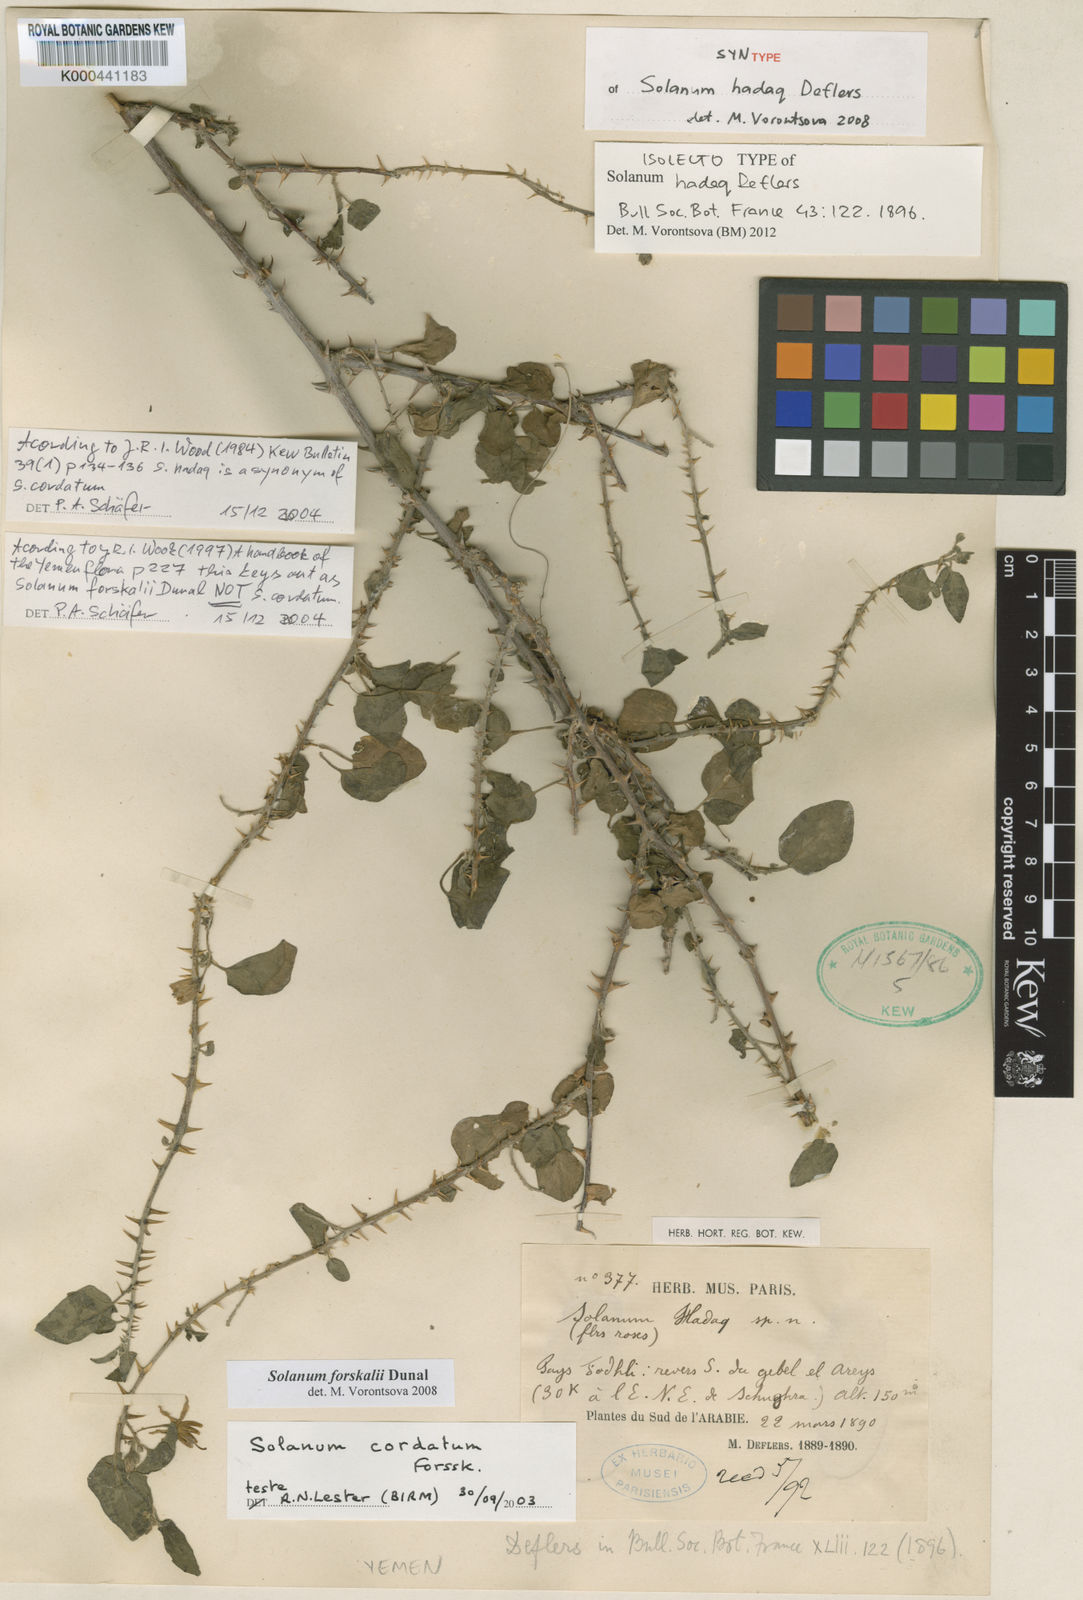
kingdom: Plantae
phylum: Tracheophyta
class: Magnoliopsida
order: Solanales
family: Solanaceae
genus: Solanum
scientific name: Solanum
